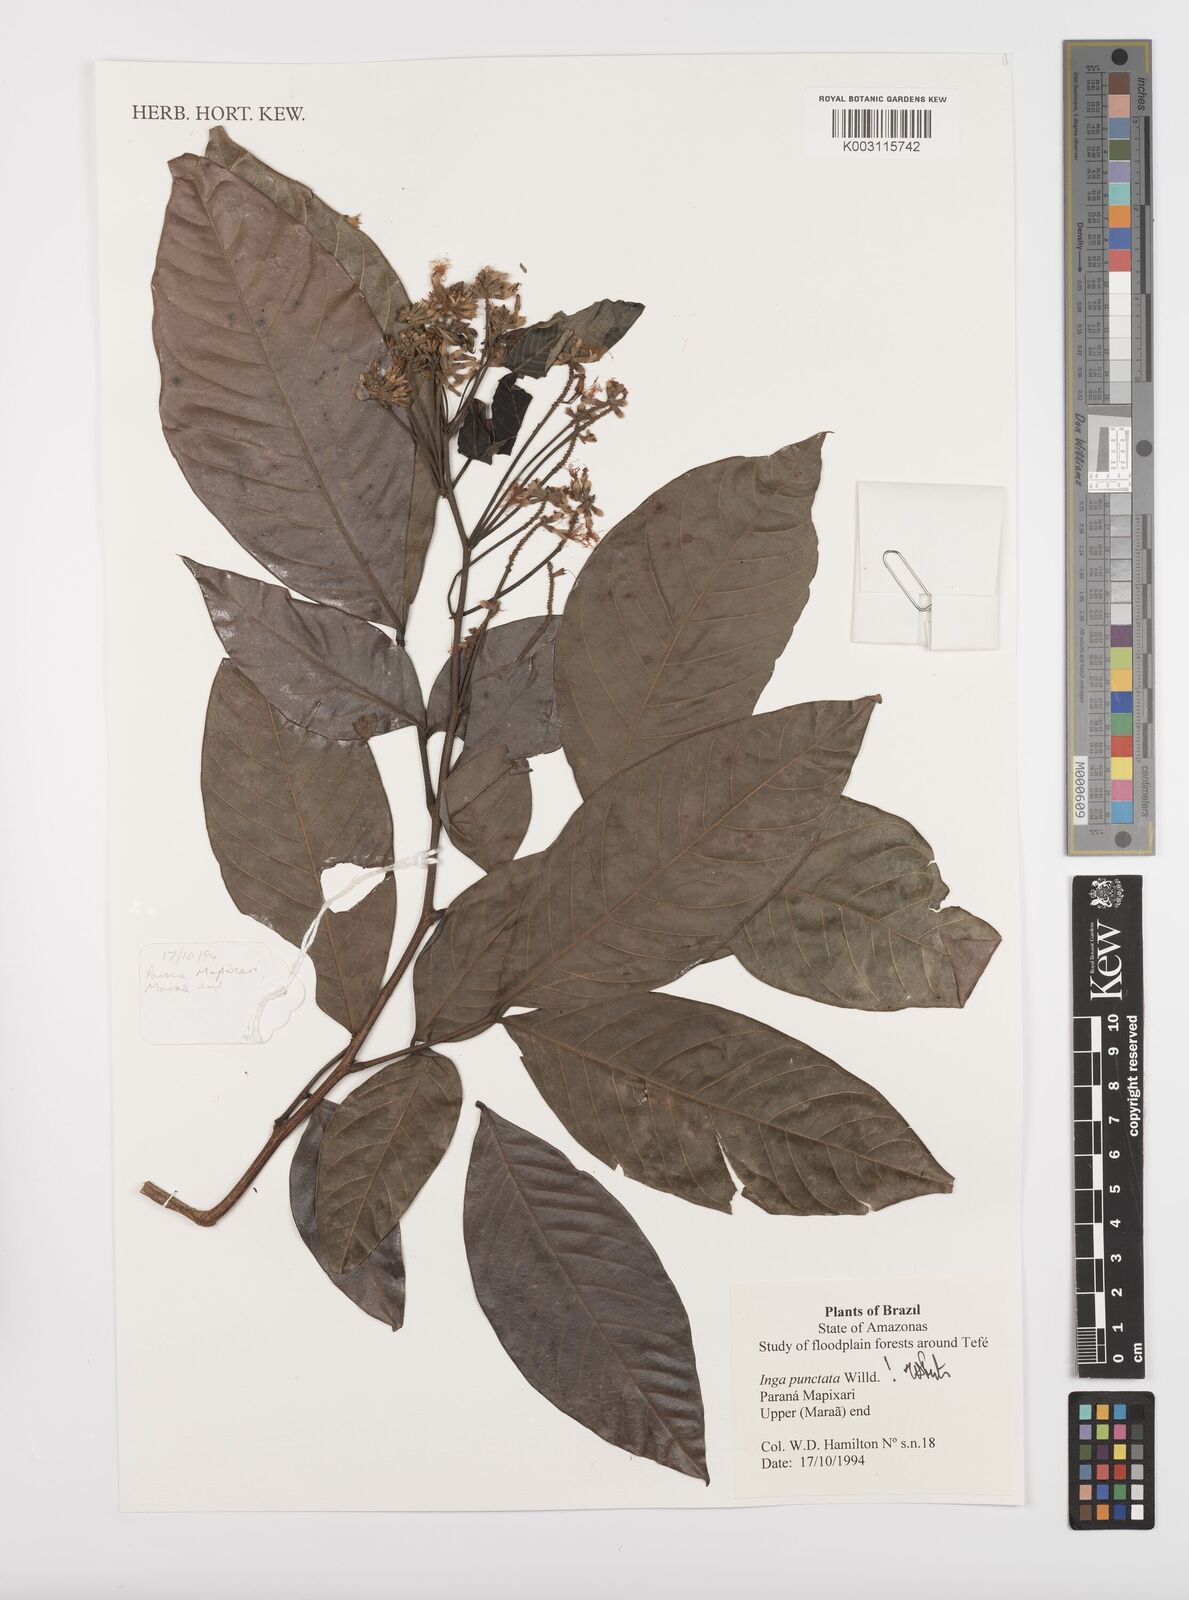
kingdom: Plantae
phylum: Tracheophyta
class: Magnoliopsida
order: Fabales
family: Fabaceae
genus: Inga
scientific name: Inga punctata
